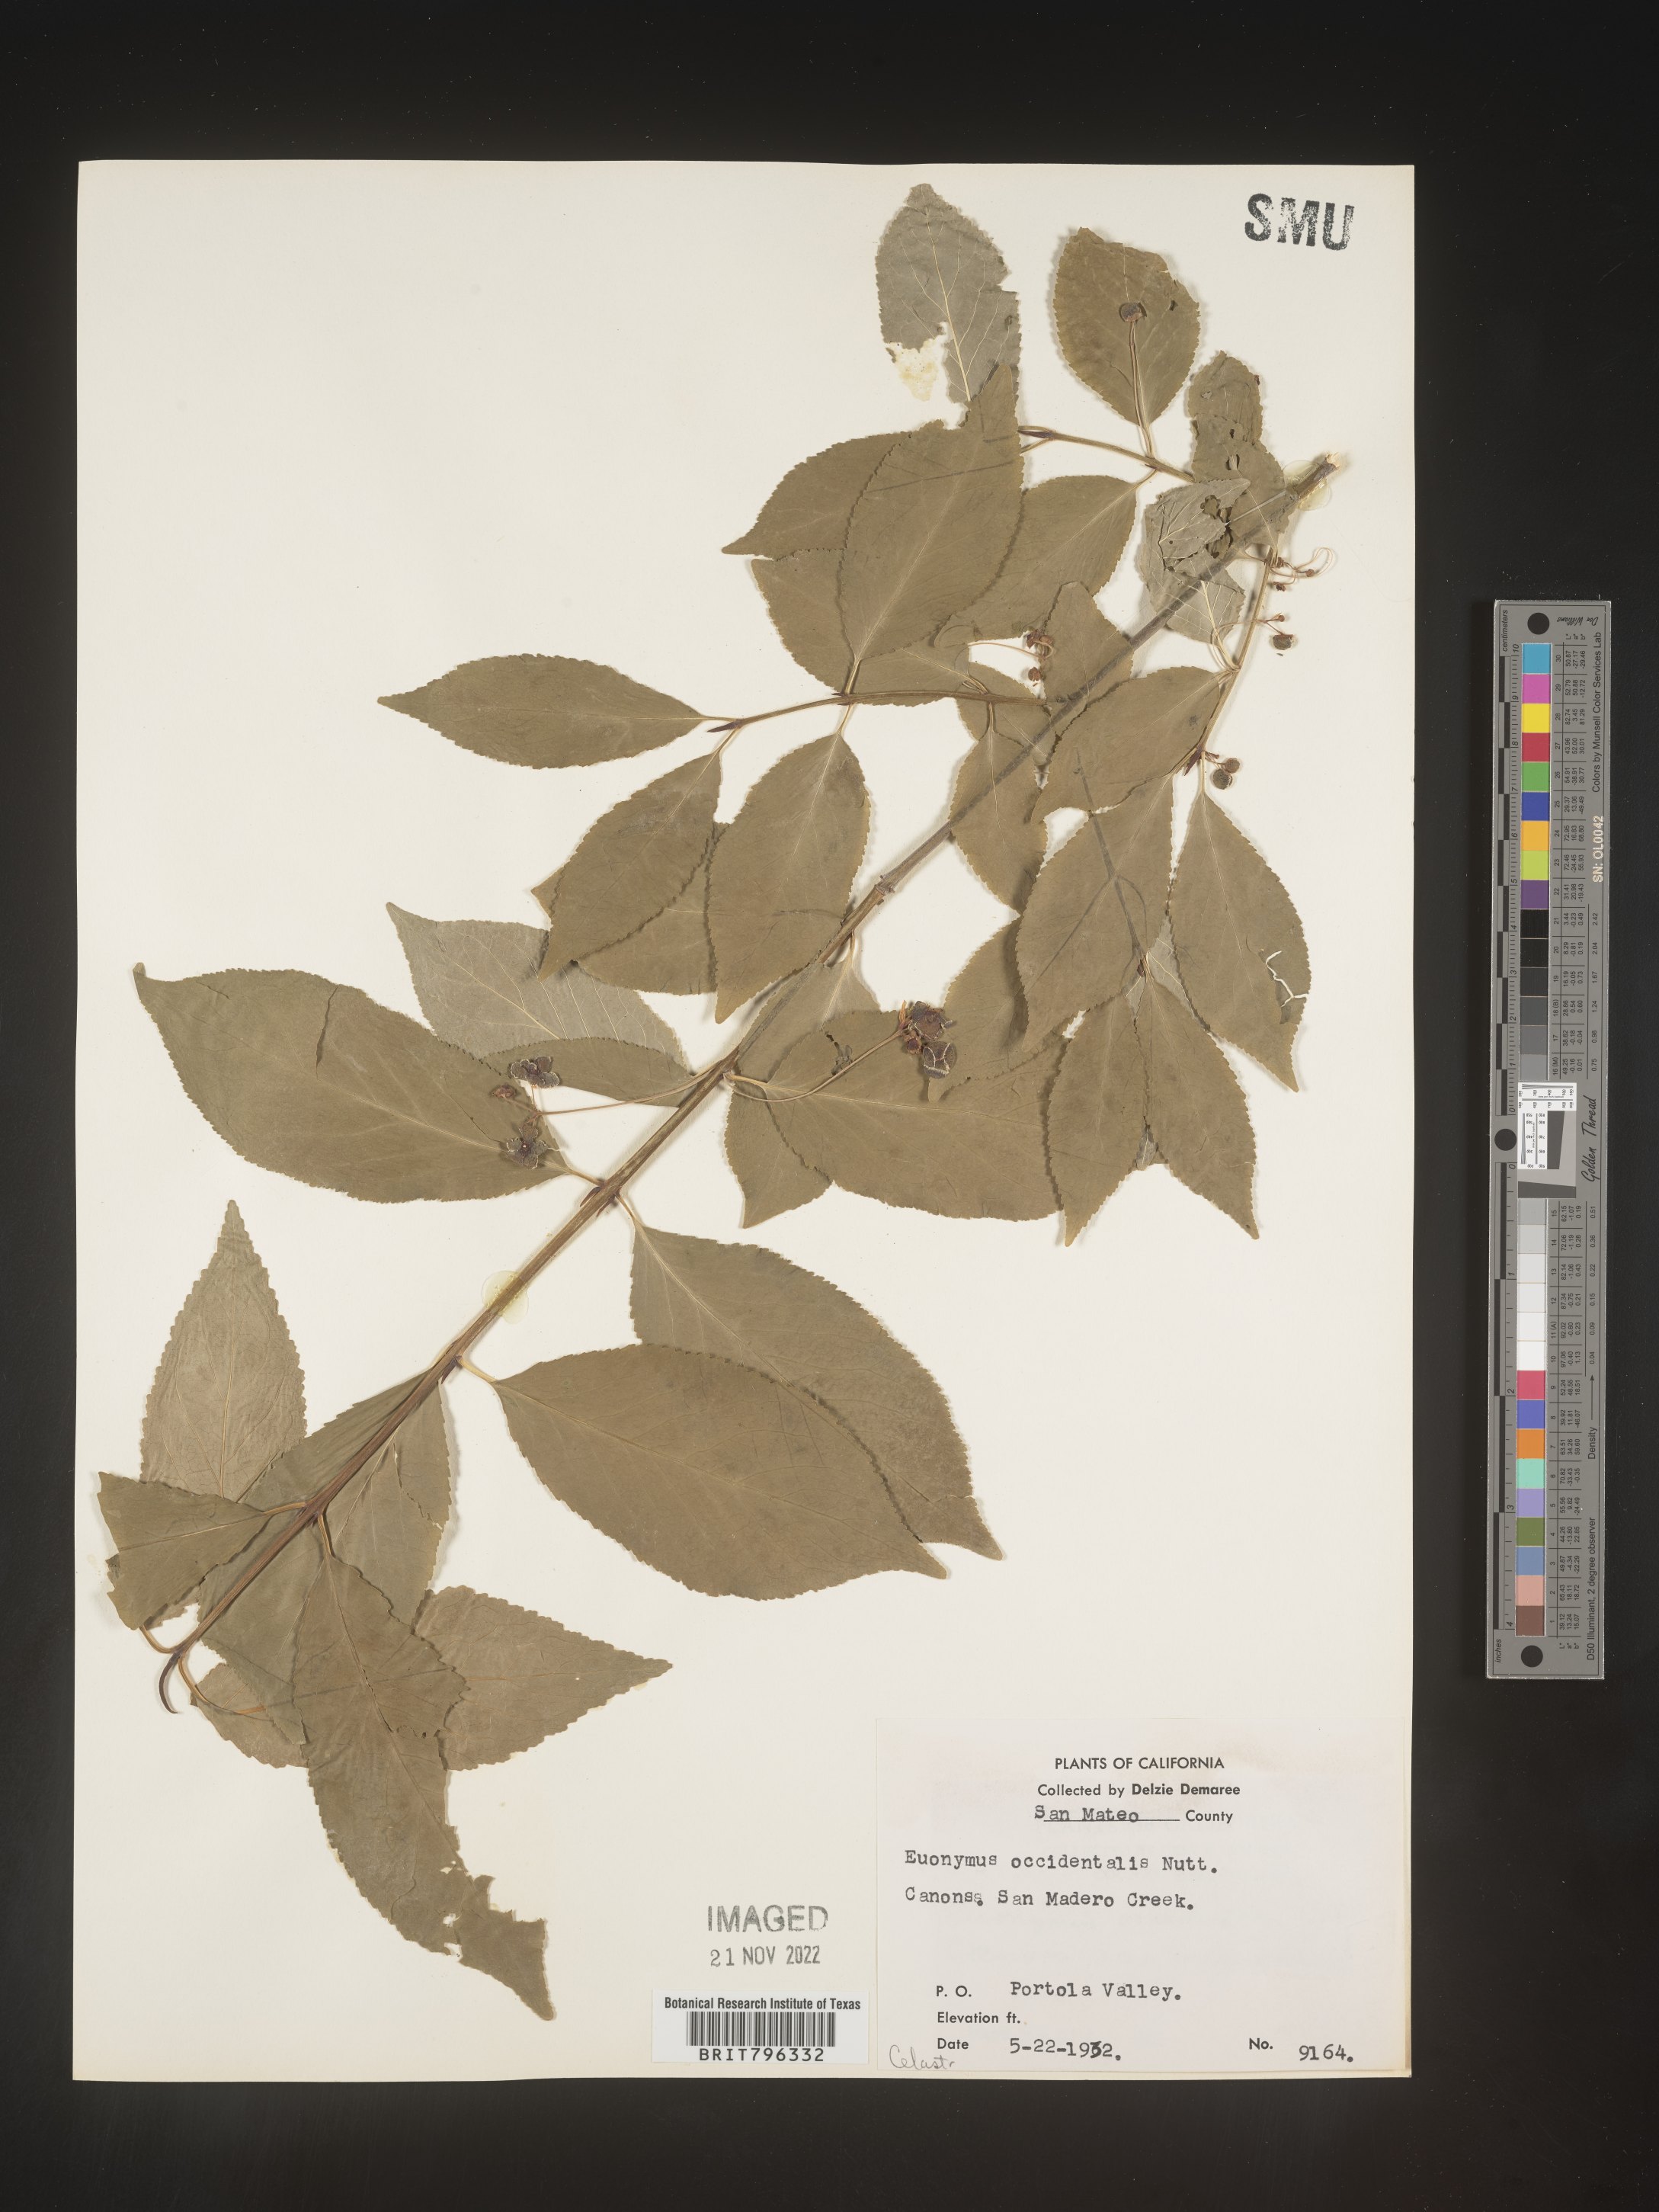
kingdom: Plantae
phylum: Tracheophyta
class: Magnoliopsida
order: Celastrales
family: Celastraceae
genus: Euonymus
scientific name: Euonymus occidentalis
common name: Western burningbush
